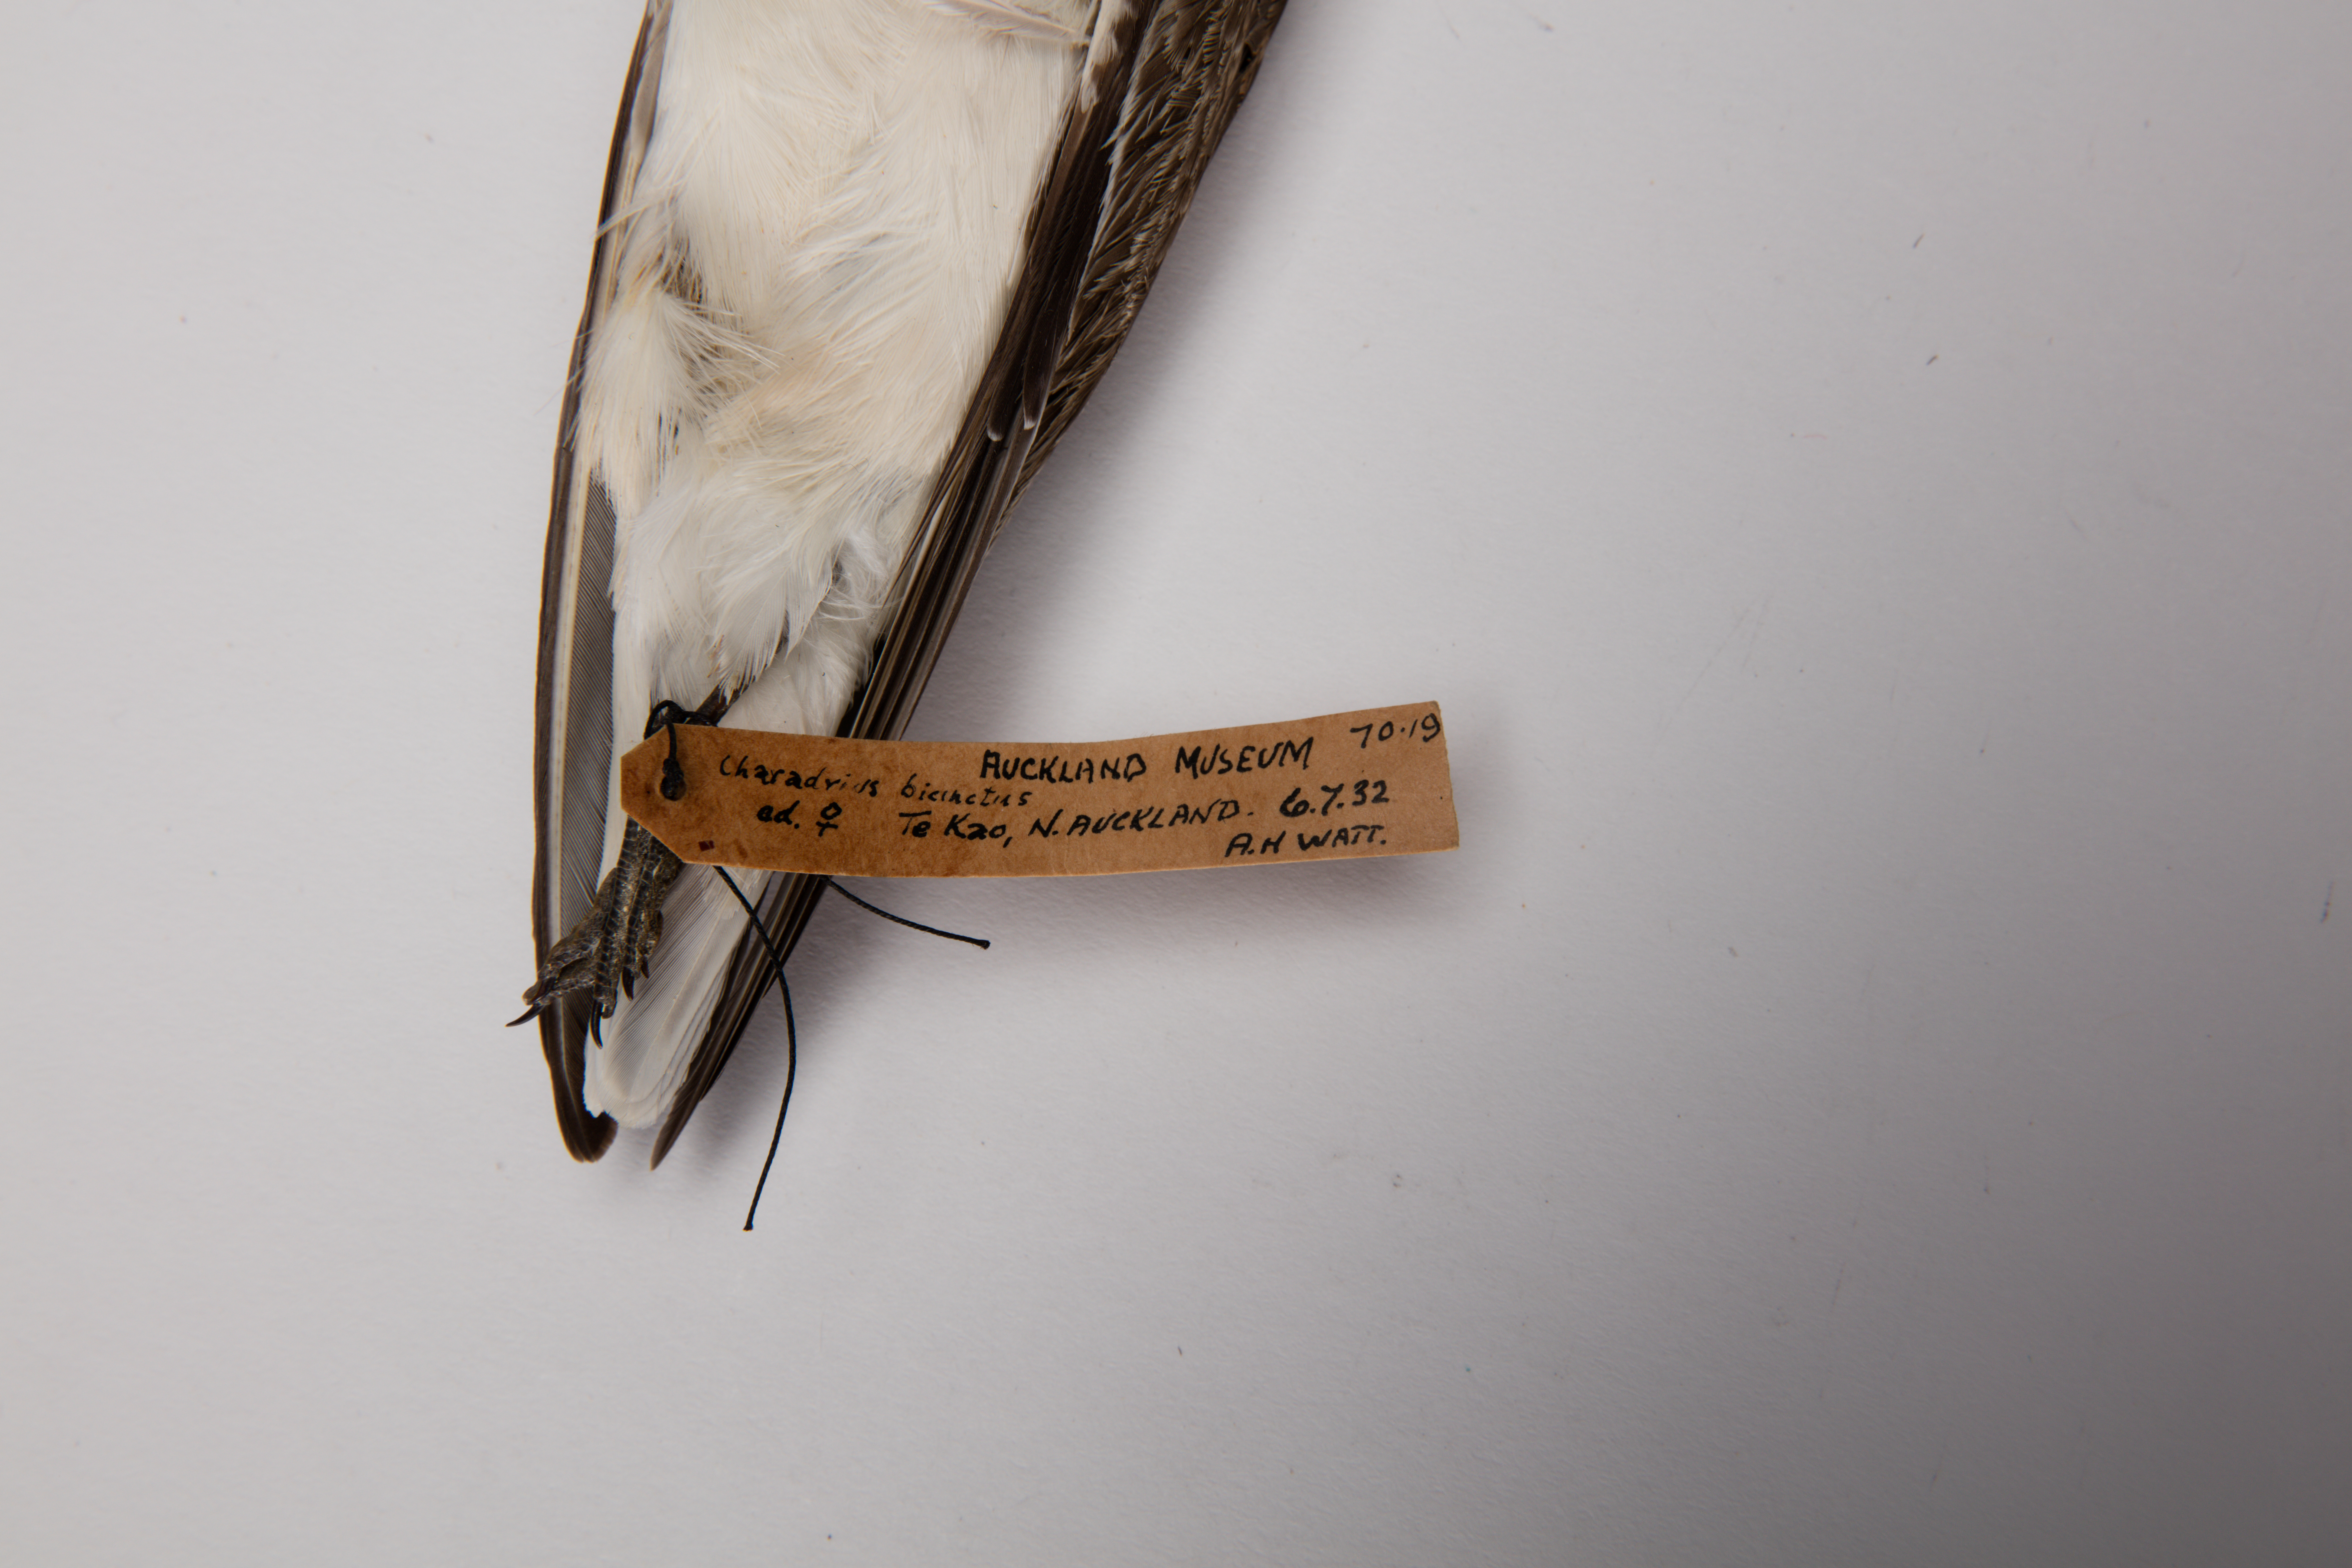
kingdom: Animalia
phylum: Chordata
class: Aves
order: Charadriiformes
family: Charadriidae
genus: Charadrius
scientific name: Charadrius bicinctus
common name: Double-banded plover
